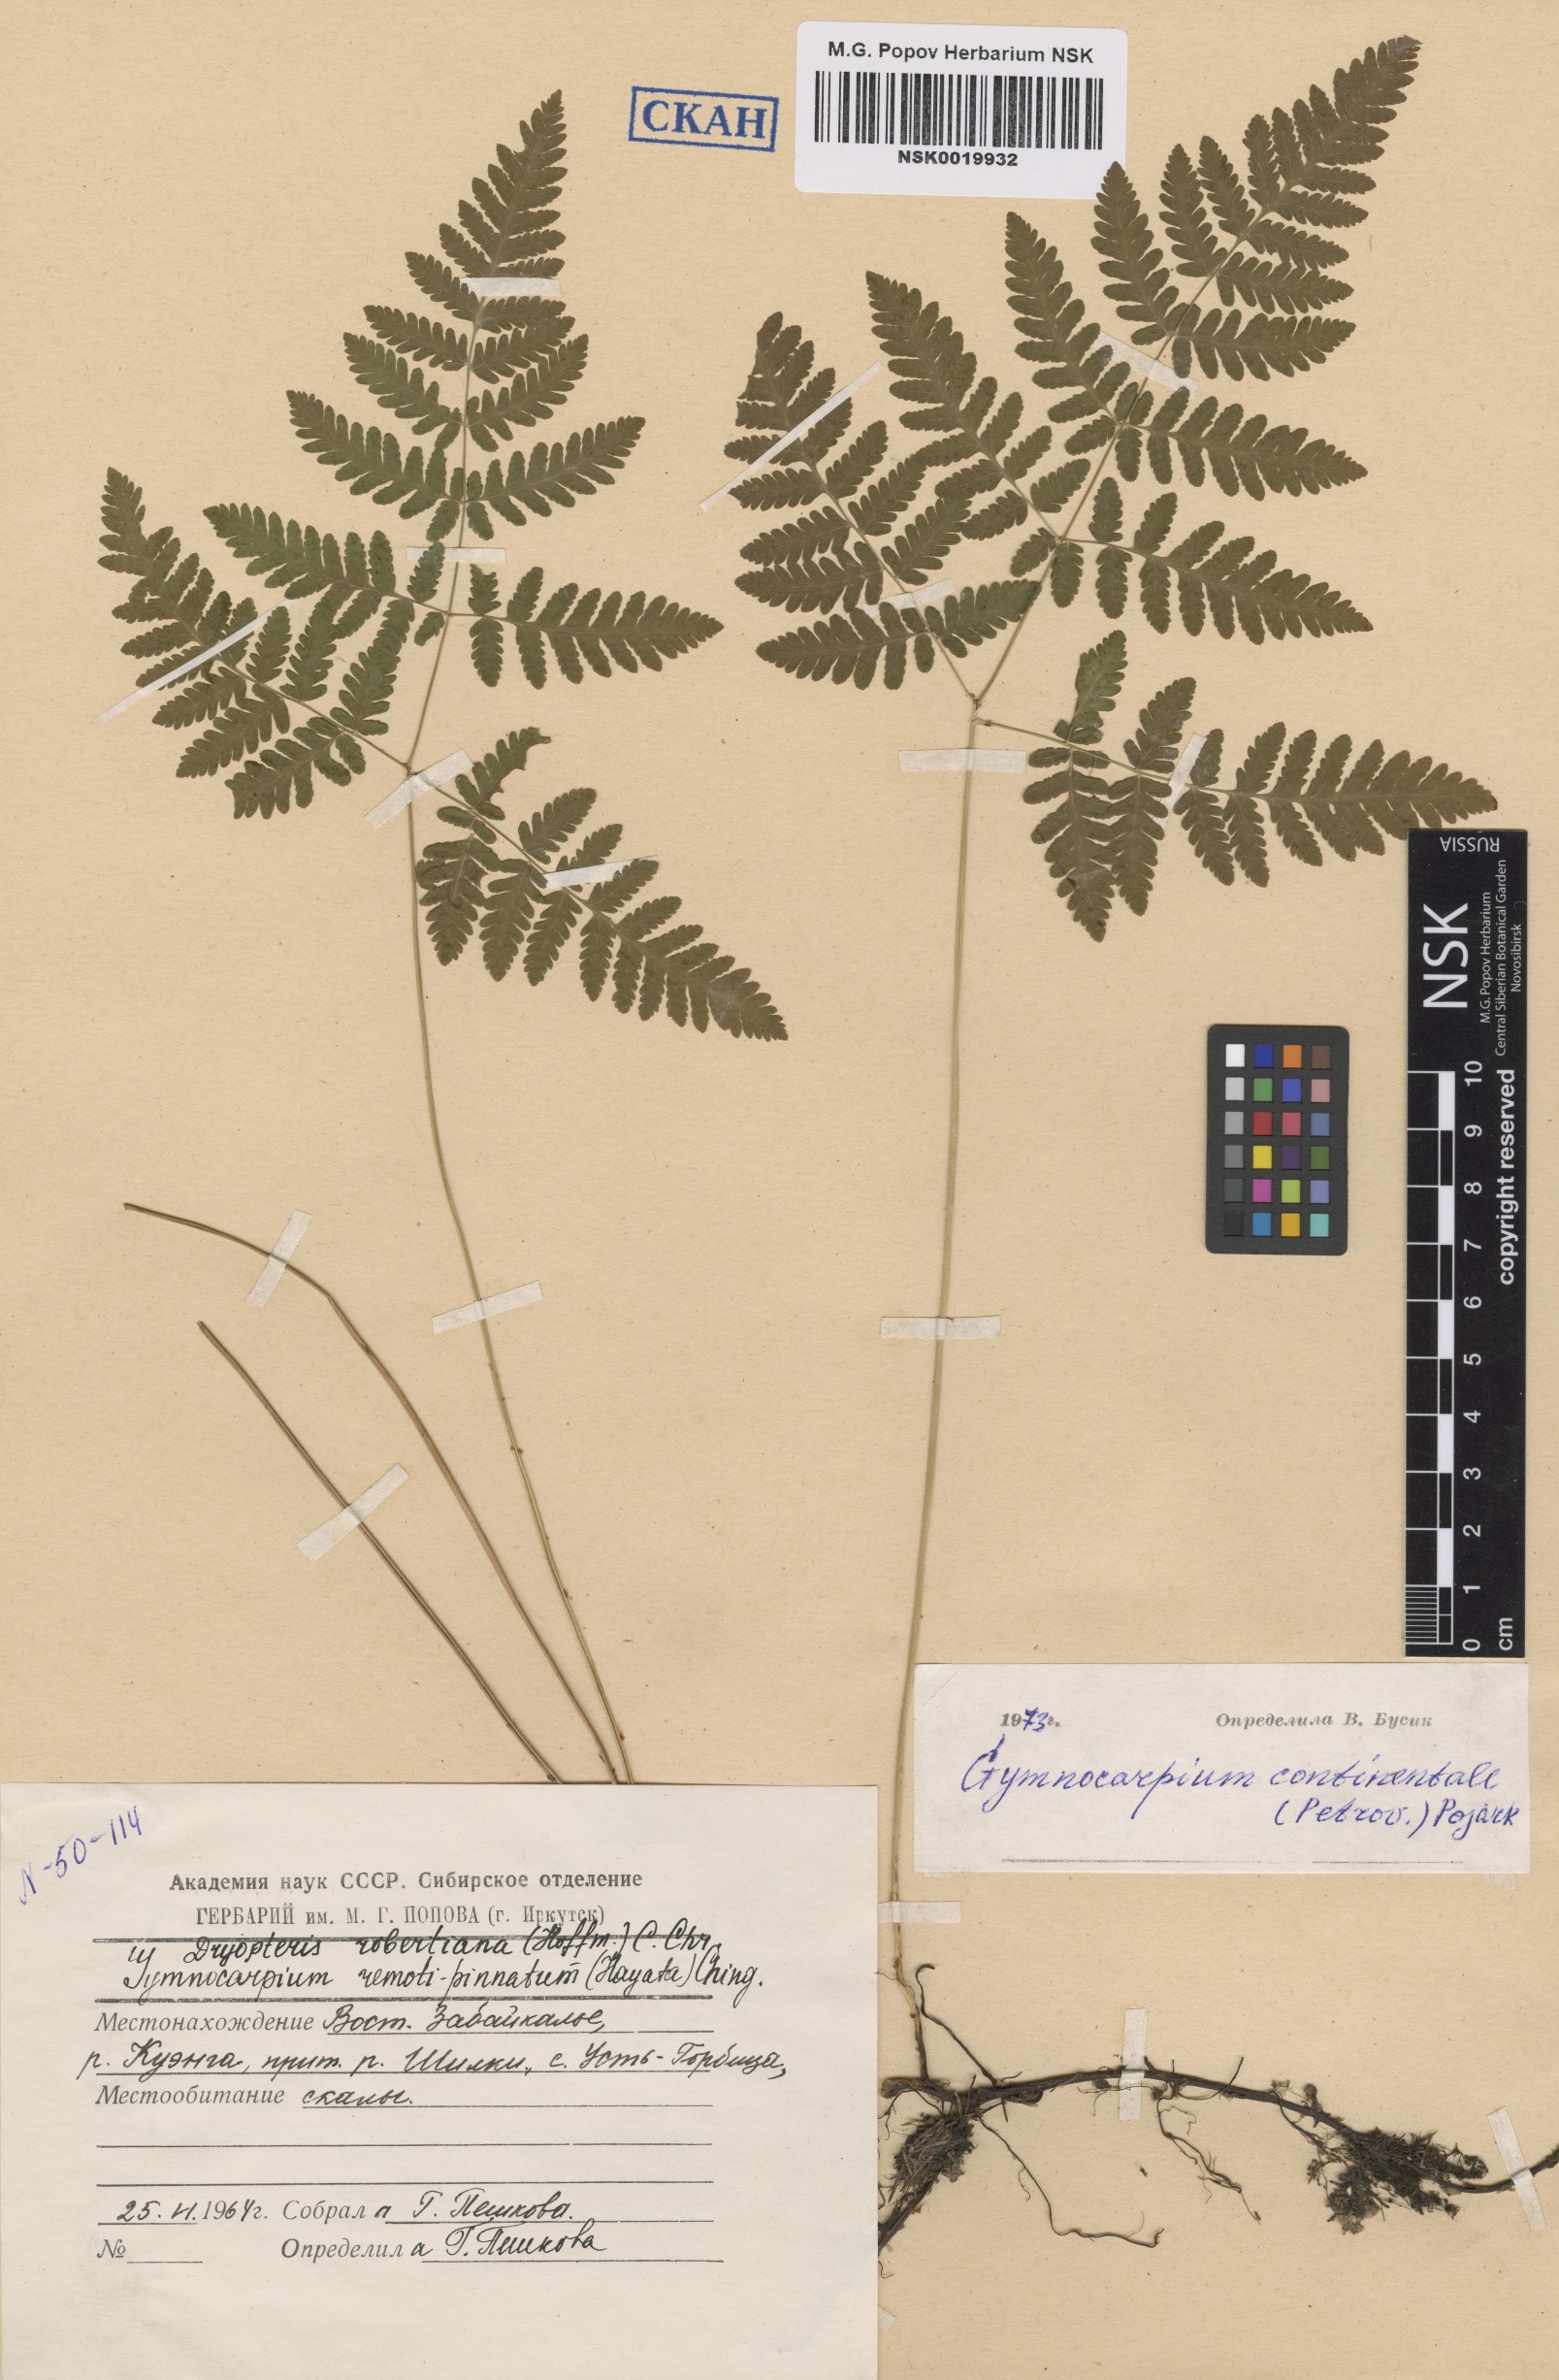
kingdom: Plantae
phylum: Tracheophyta
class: Polypodiopsida
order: Polypodiales
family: Cystopteridaceae
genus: Gymnocarpium
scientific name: Gymnocarpium continentale
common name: Asian oak fern
